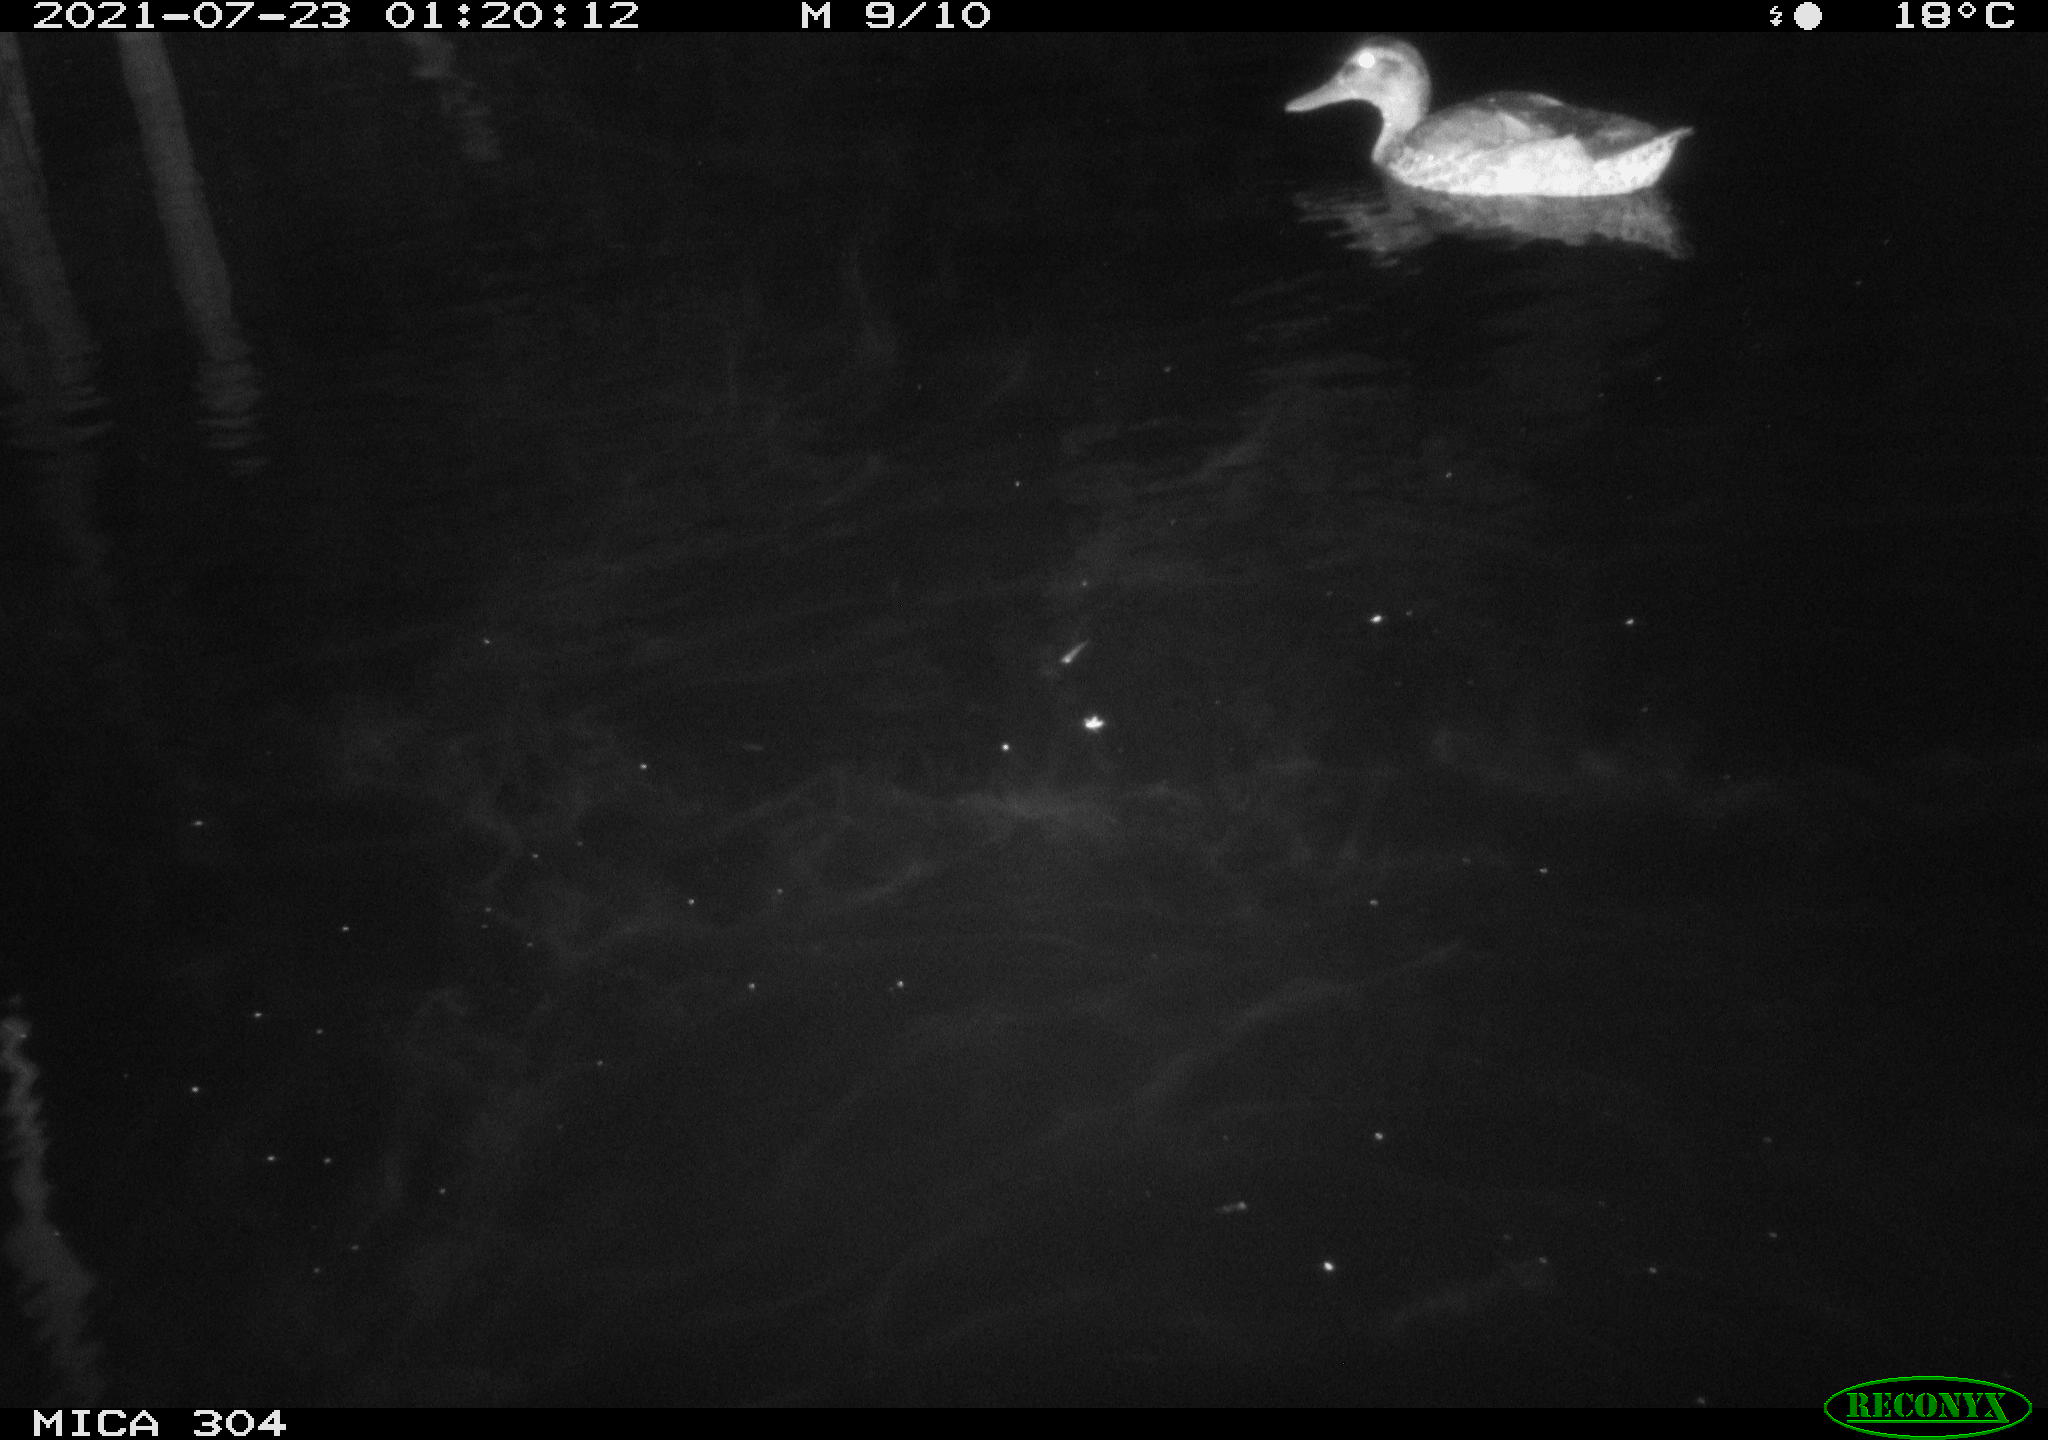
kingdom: Animalia
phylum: Chordata
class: Aves
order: Anseriformes
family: Anatidae
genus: Anas
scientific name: Anas platyrhynchos
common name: Mallard
